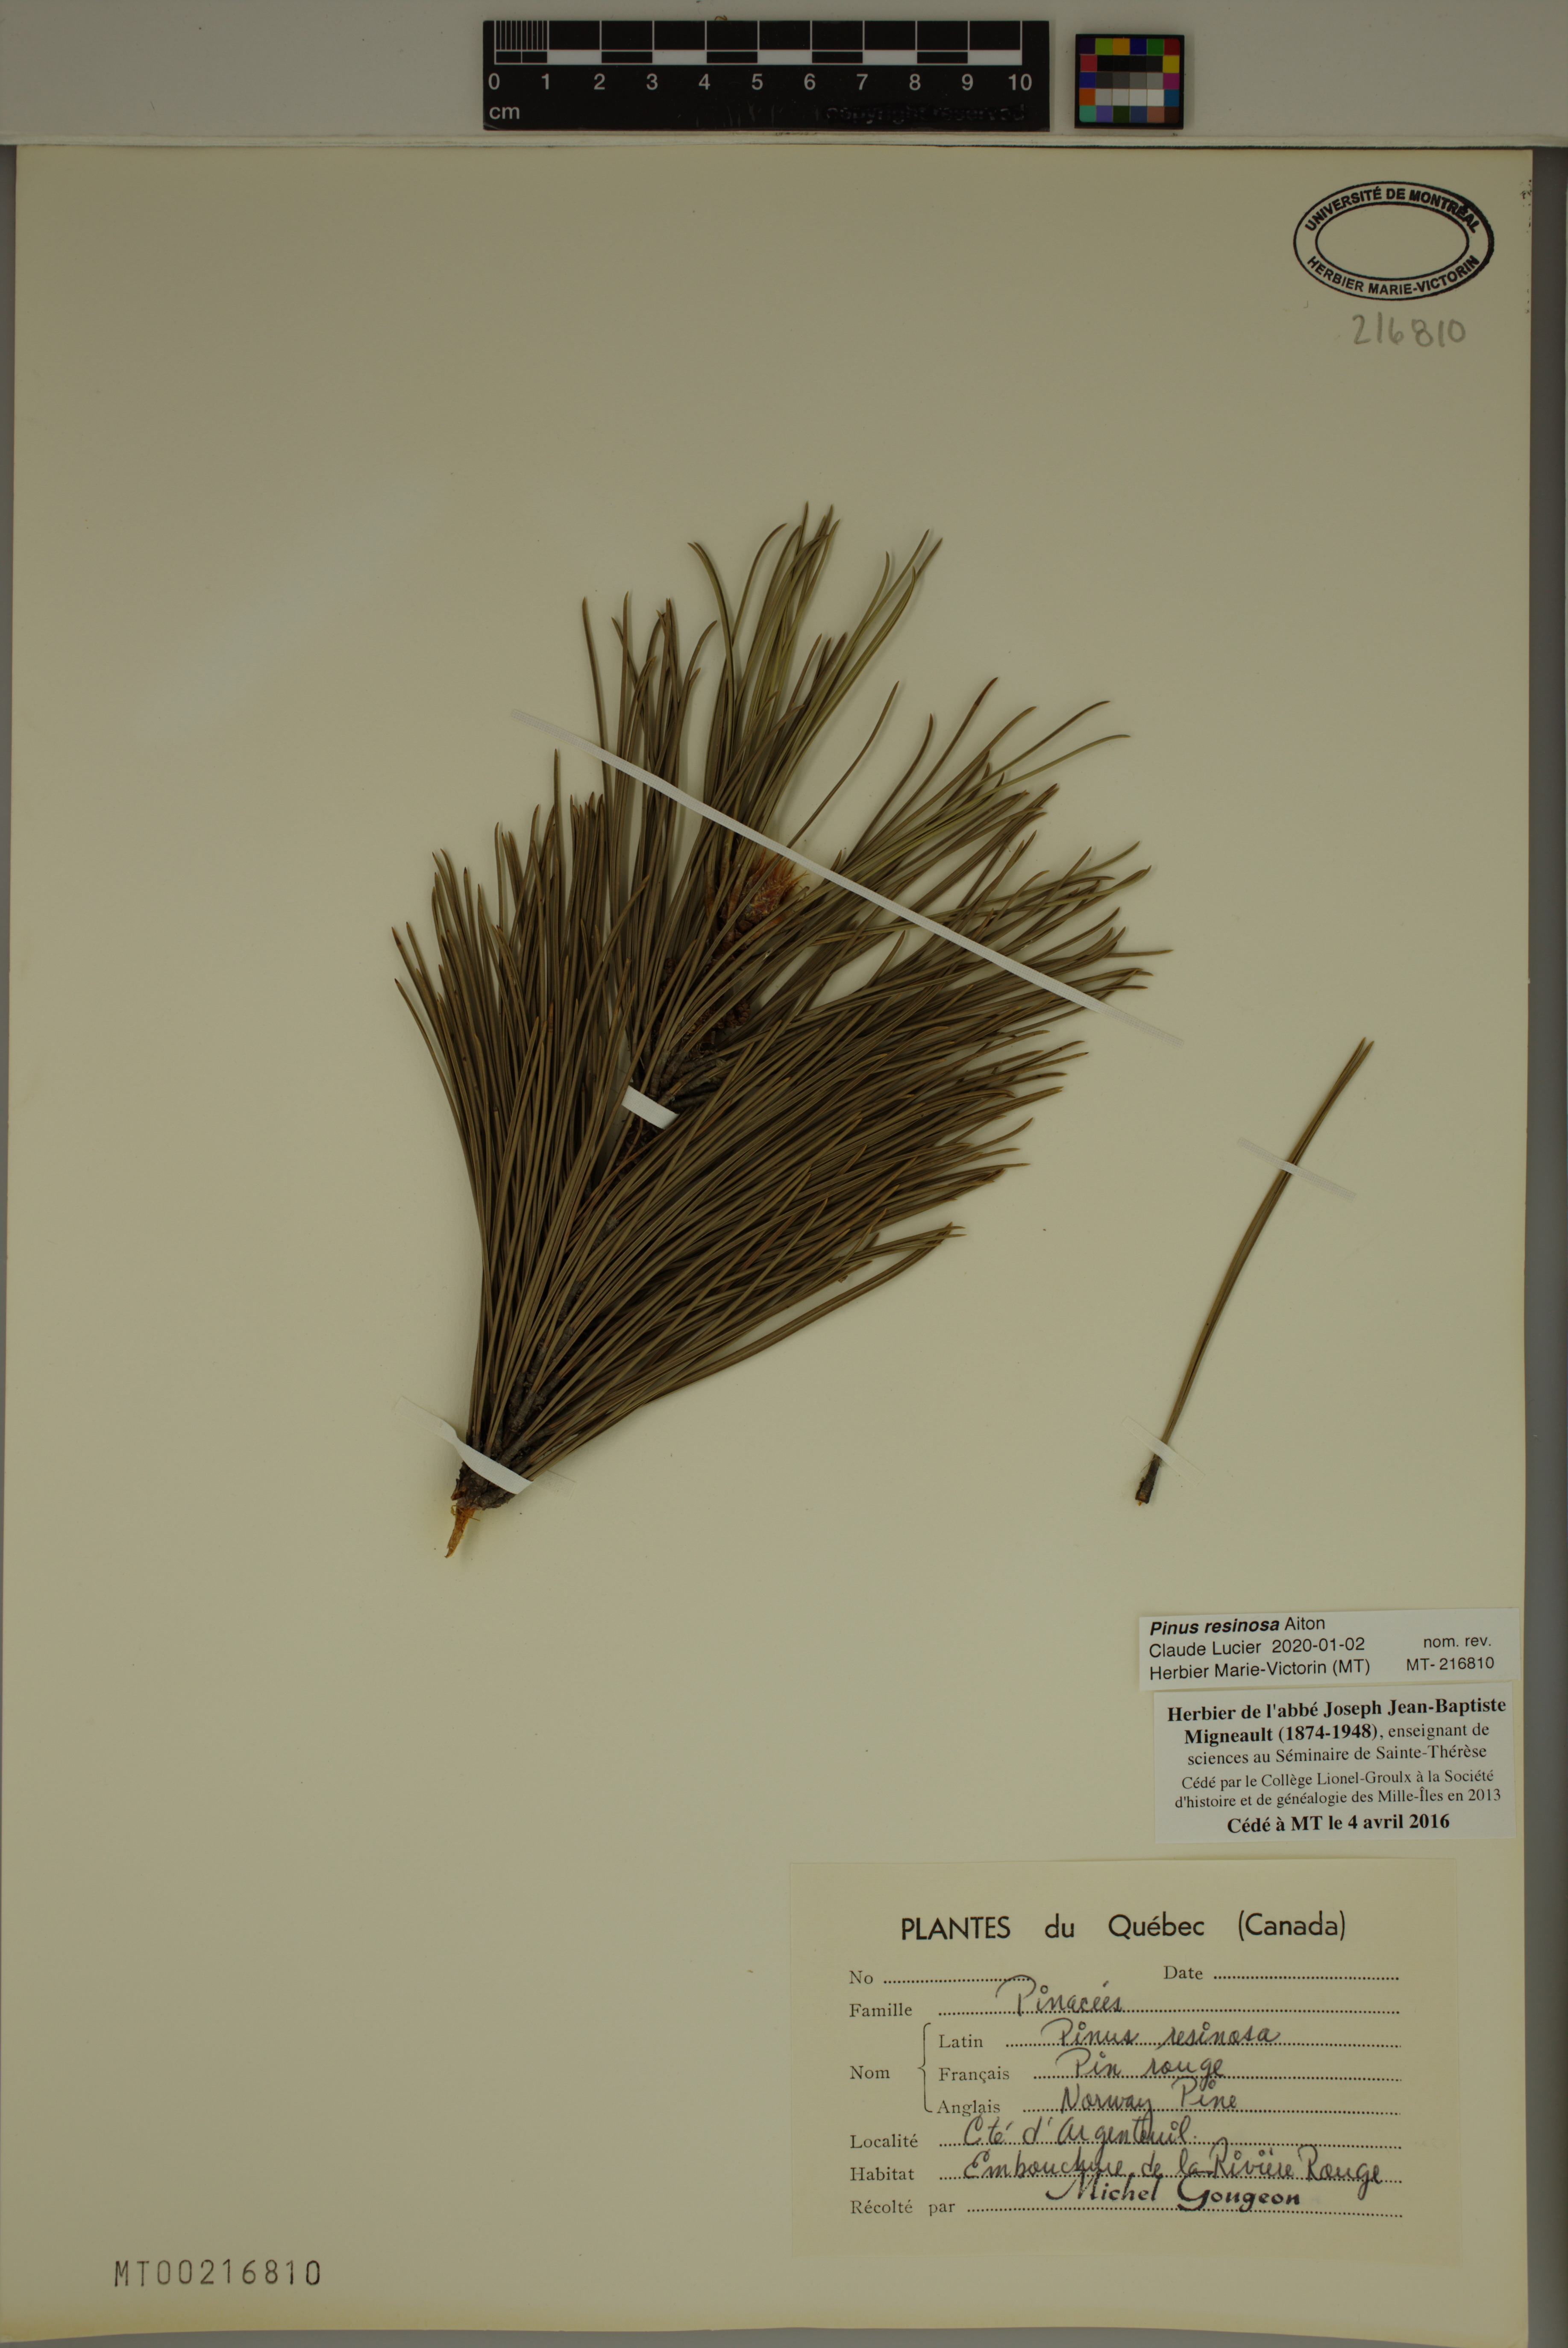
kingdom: Plantae
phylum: Tracheophyta
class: Pinopsida
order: Pinales
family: Pinaceae
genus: Pinus
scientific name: Pinus resinosa
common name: Norway pine
